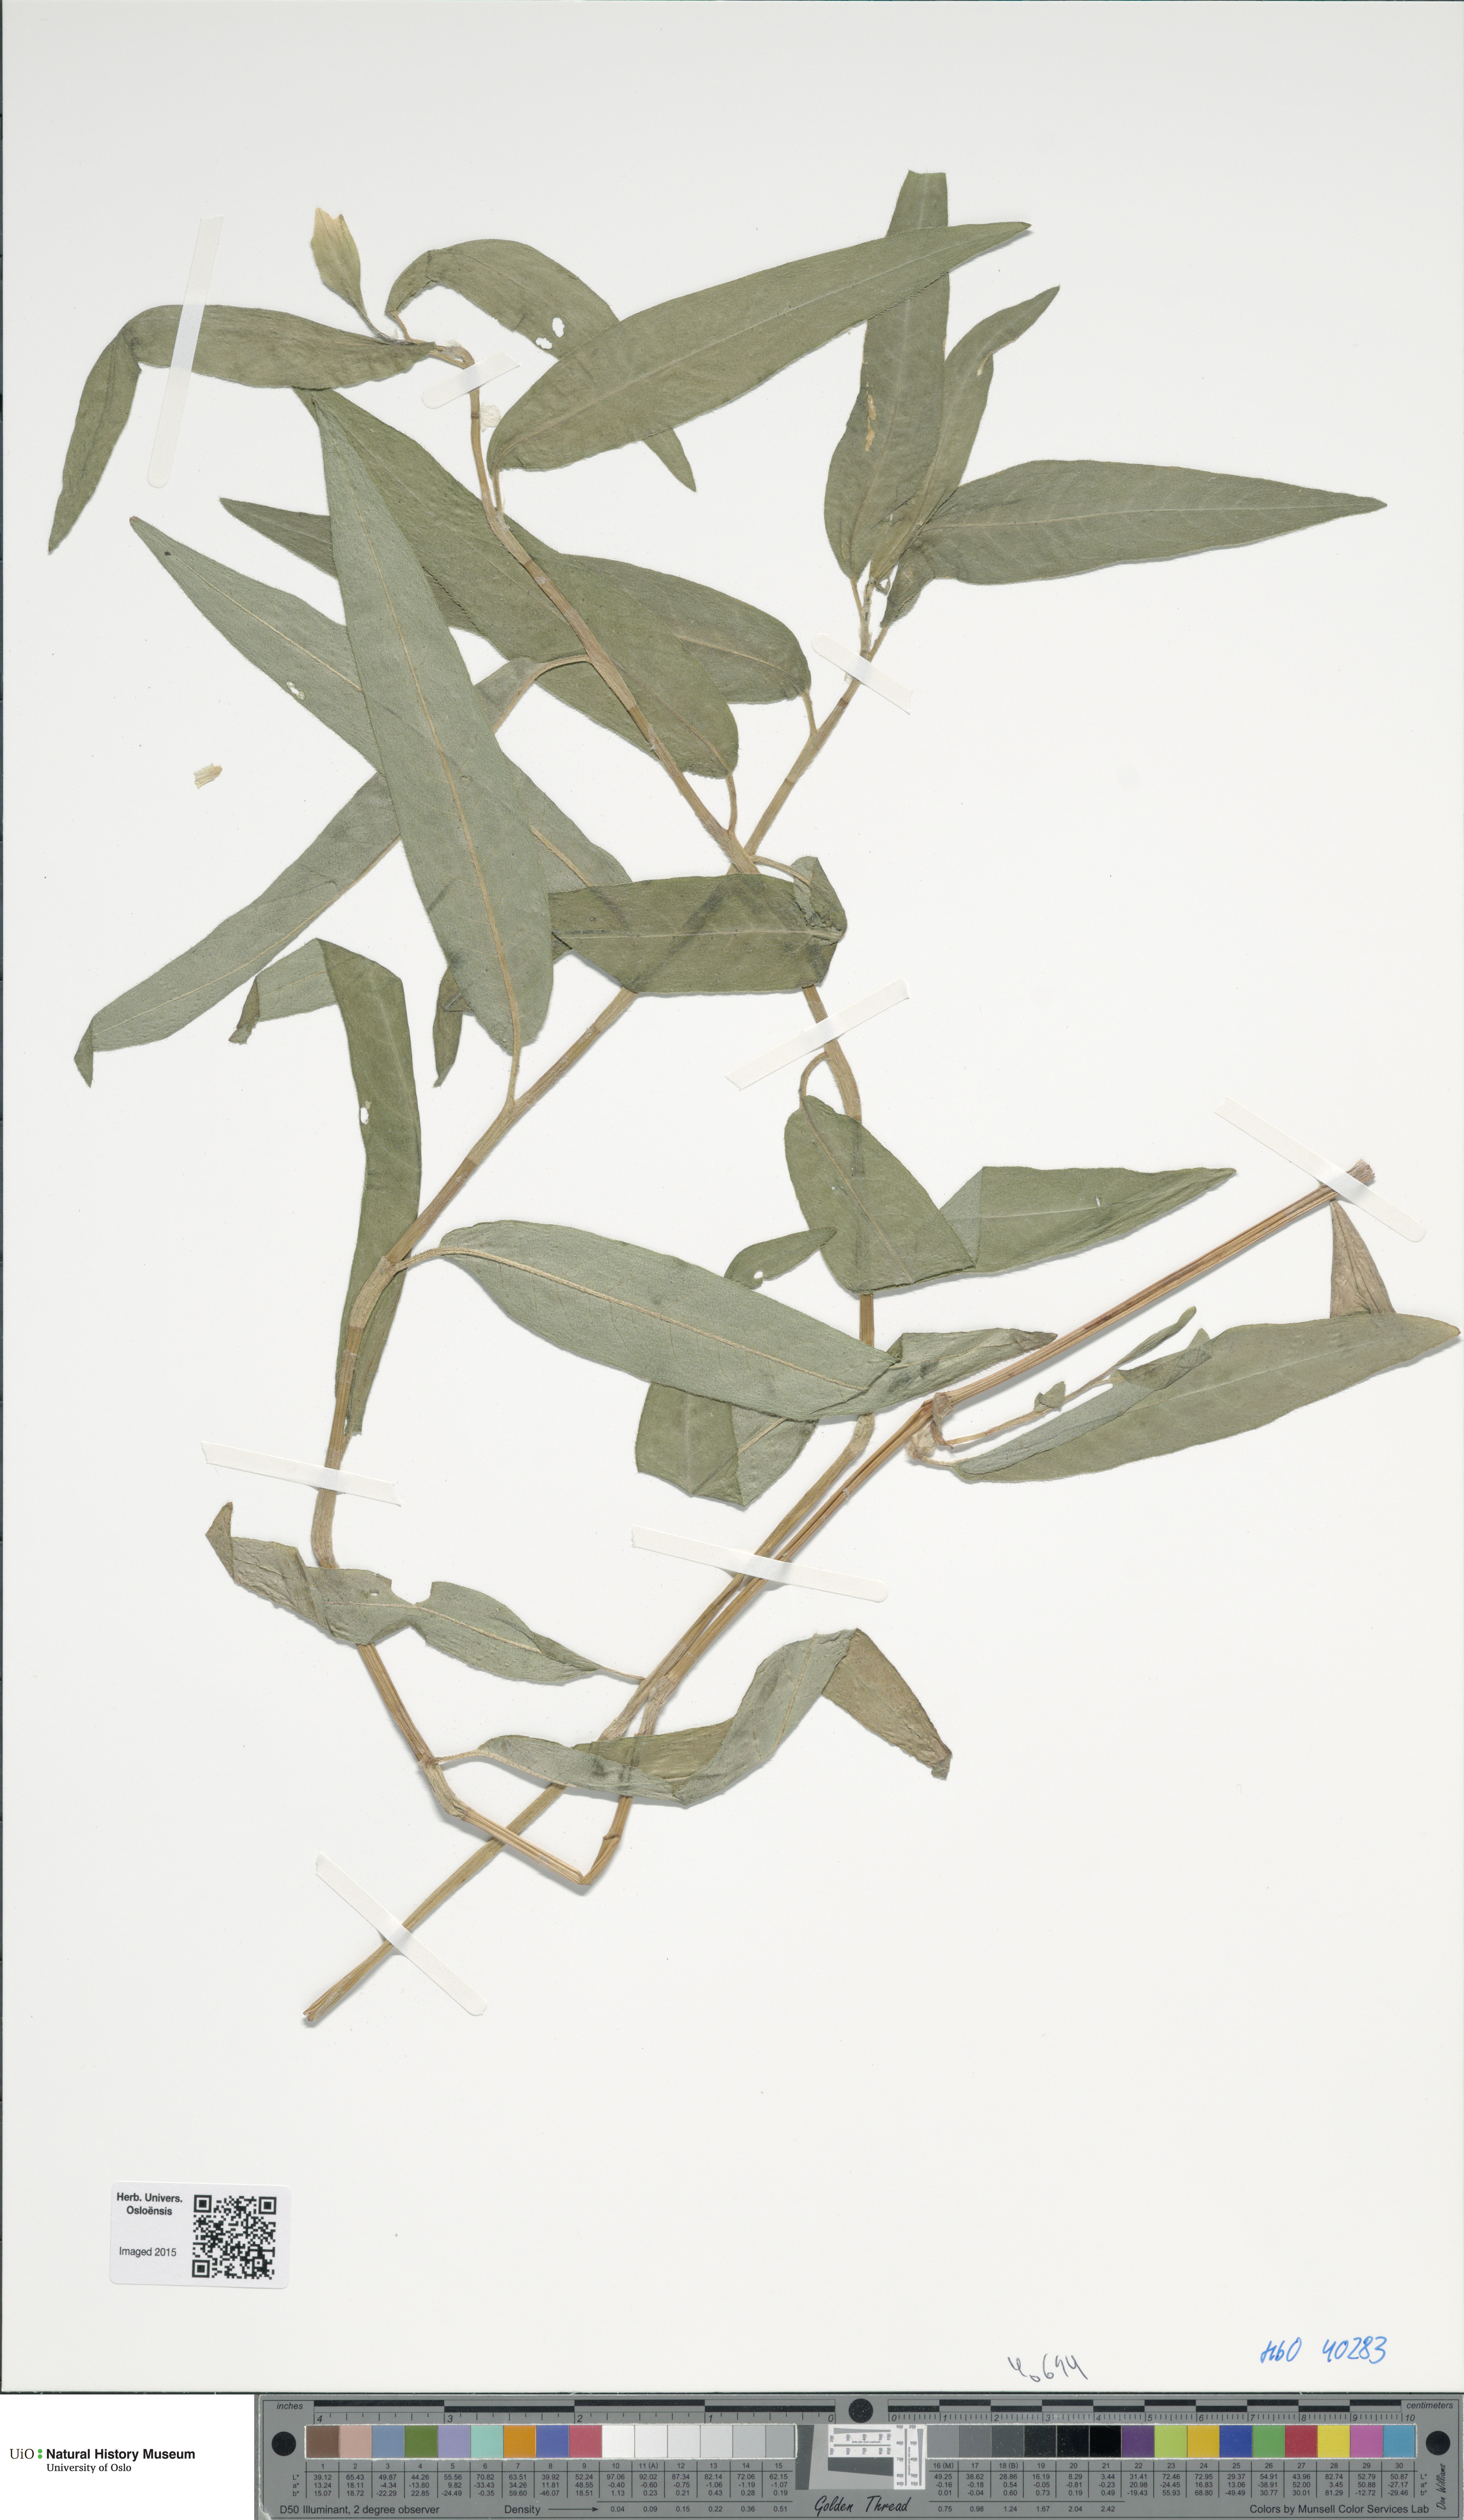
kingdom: Plantae
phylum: Tracheophyta
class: Magnoliopsida
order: Caryophyllales
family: Polygonaceae
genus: Persicaria
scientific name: Persicaria amphibia
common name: Amphibious bistort
